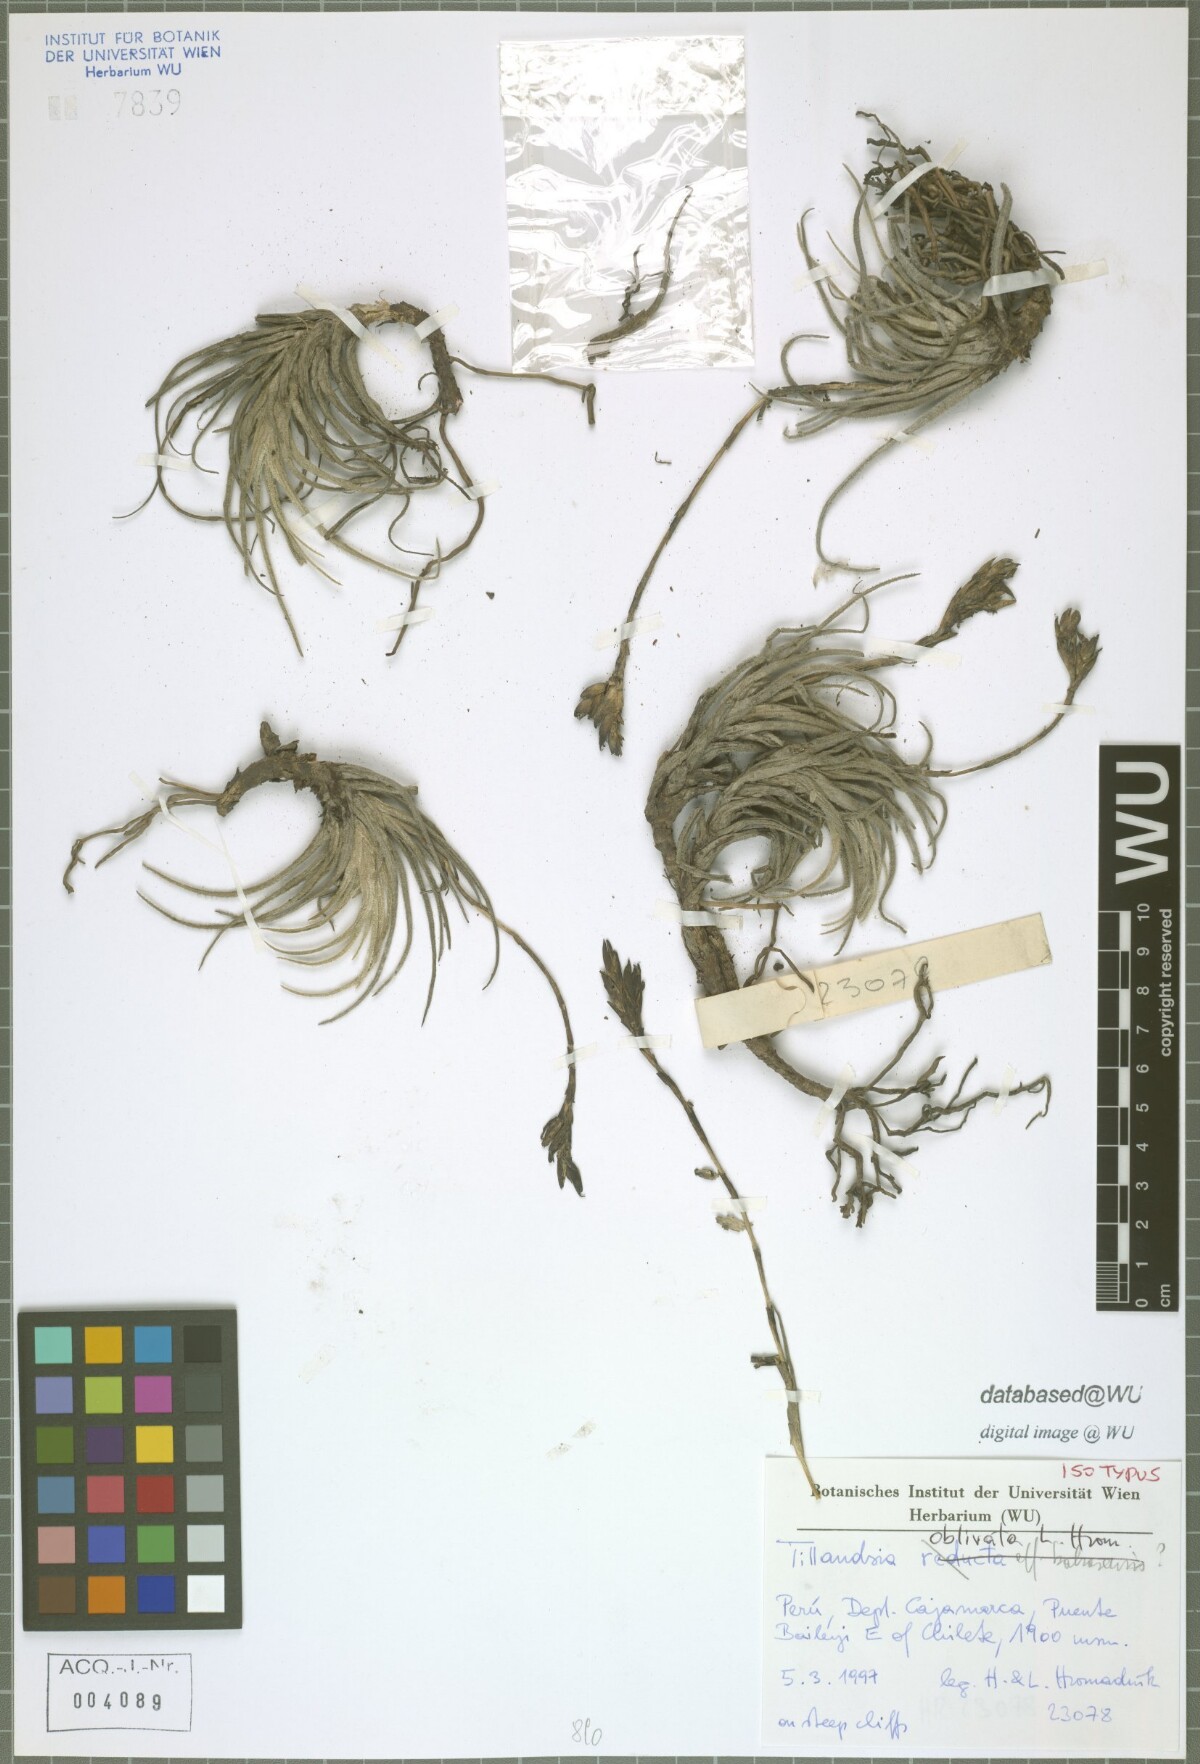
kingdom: Plantae
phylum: Tracheophyta
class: Liliopsida
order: Poales
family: Bromeliaceae
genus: Tillandsia
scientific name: Tillandsia oblivata
